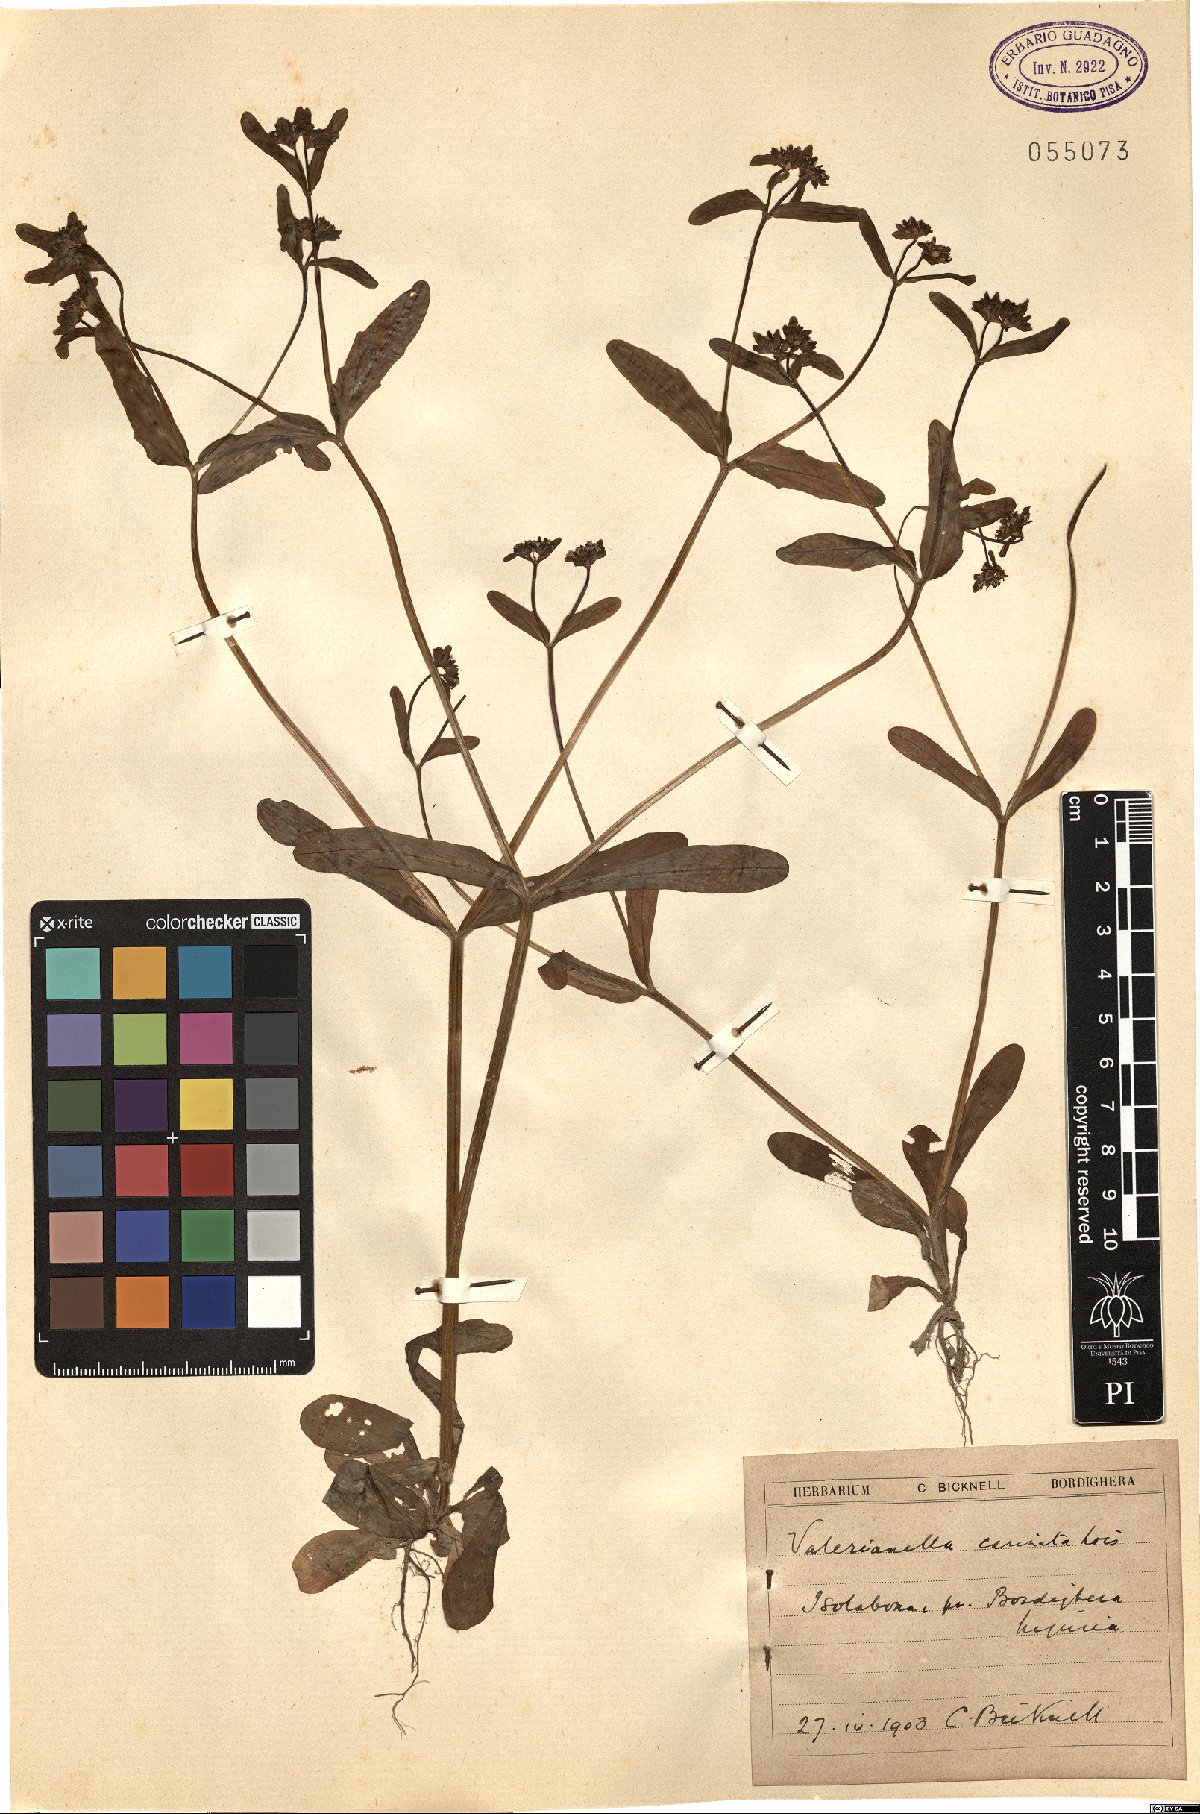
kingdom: Plantae
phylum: Tracheophyta
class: Magnoliopsida
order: Dipsacales
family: Caprifoliaceae
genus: Valerianella
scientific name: Valerianella carinata
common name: Keeled-fruited cornsalad
